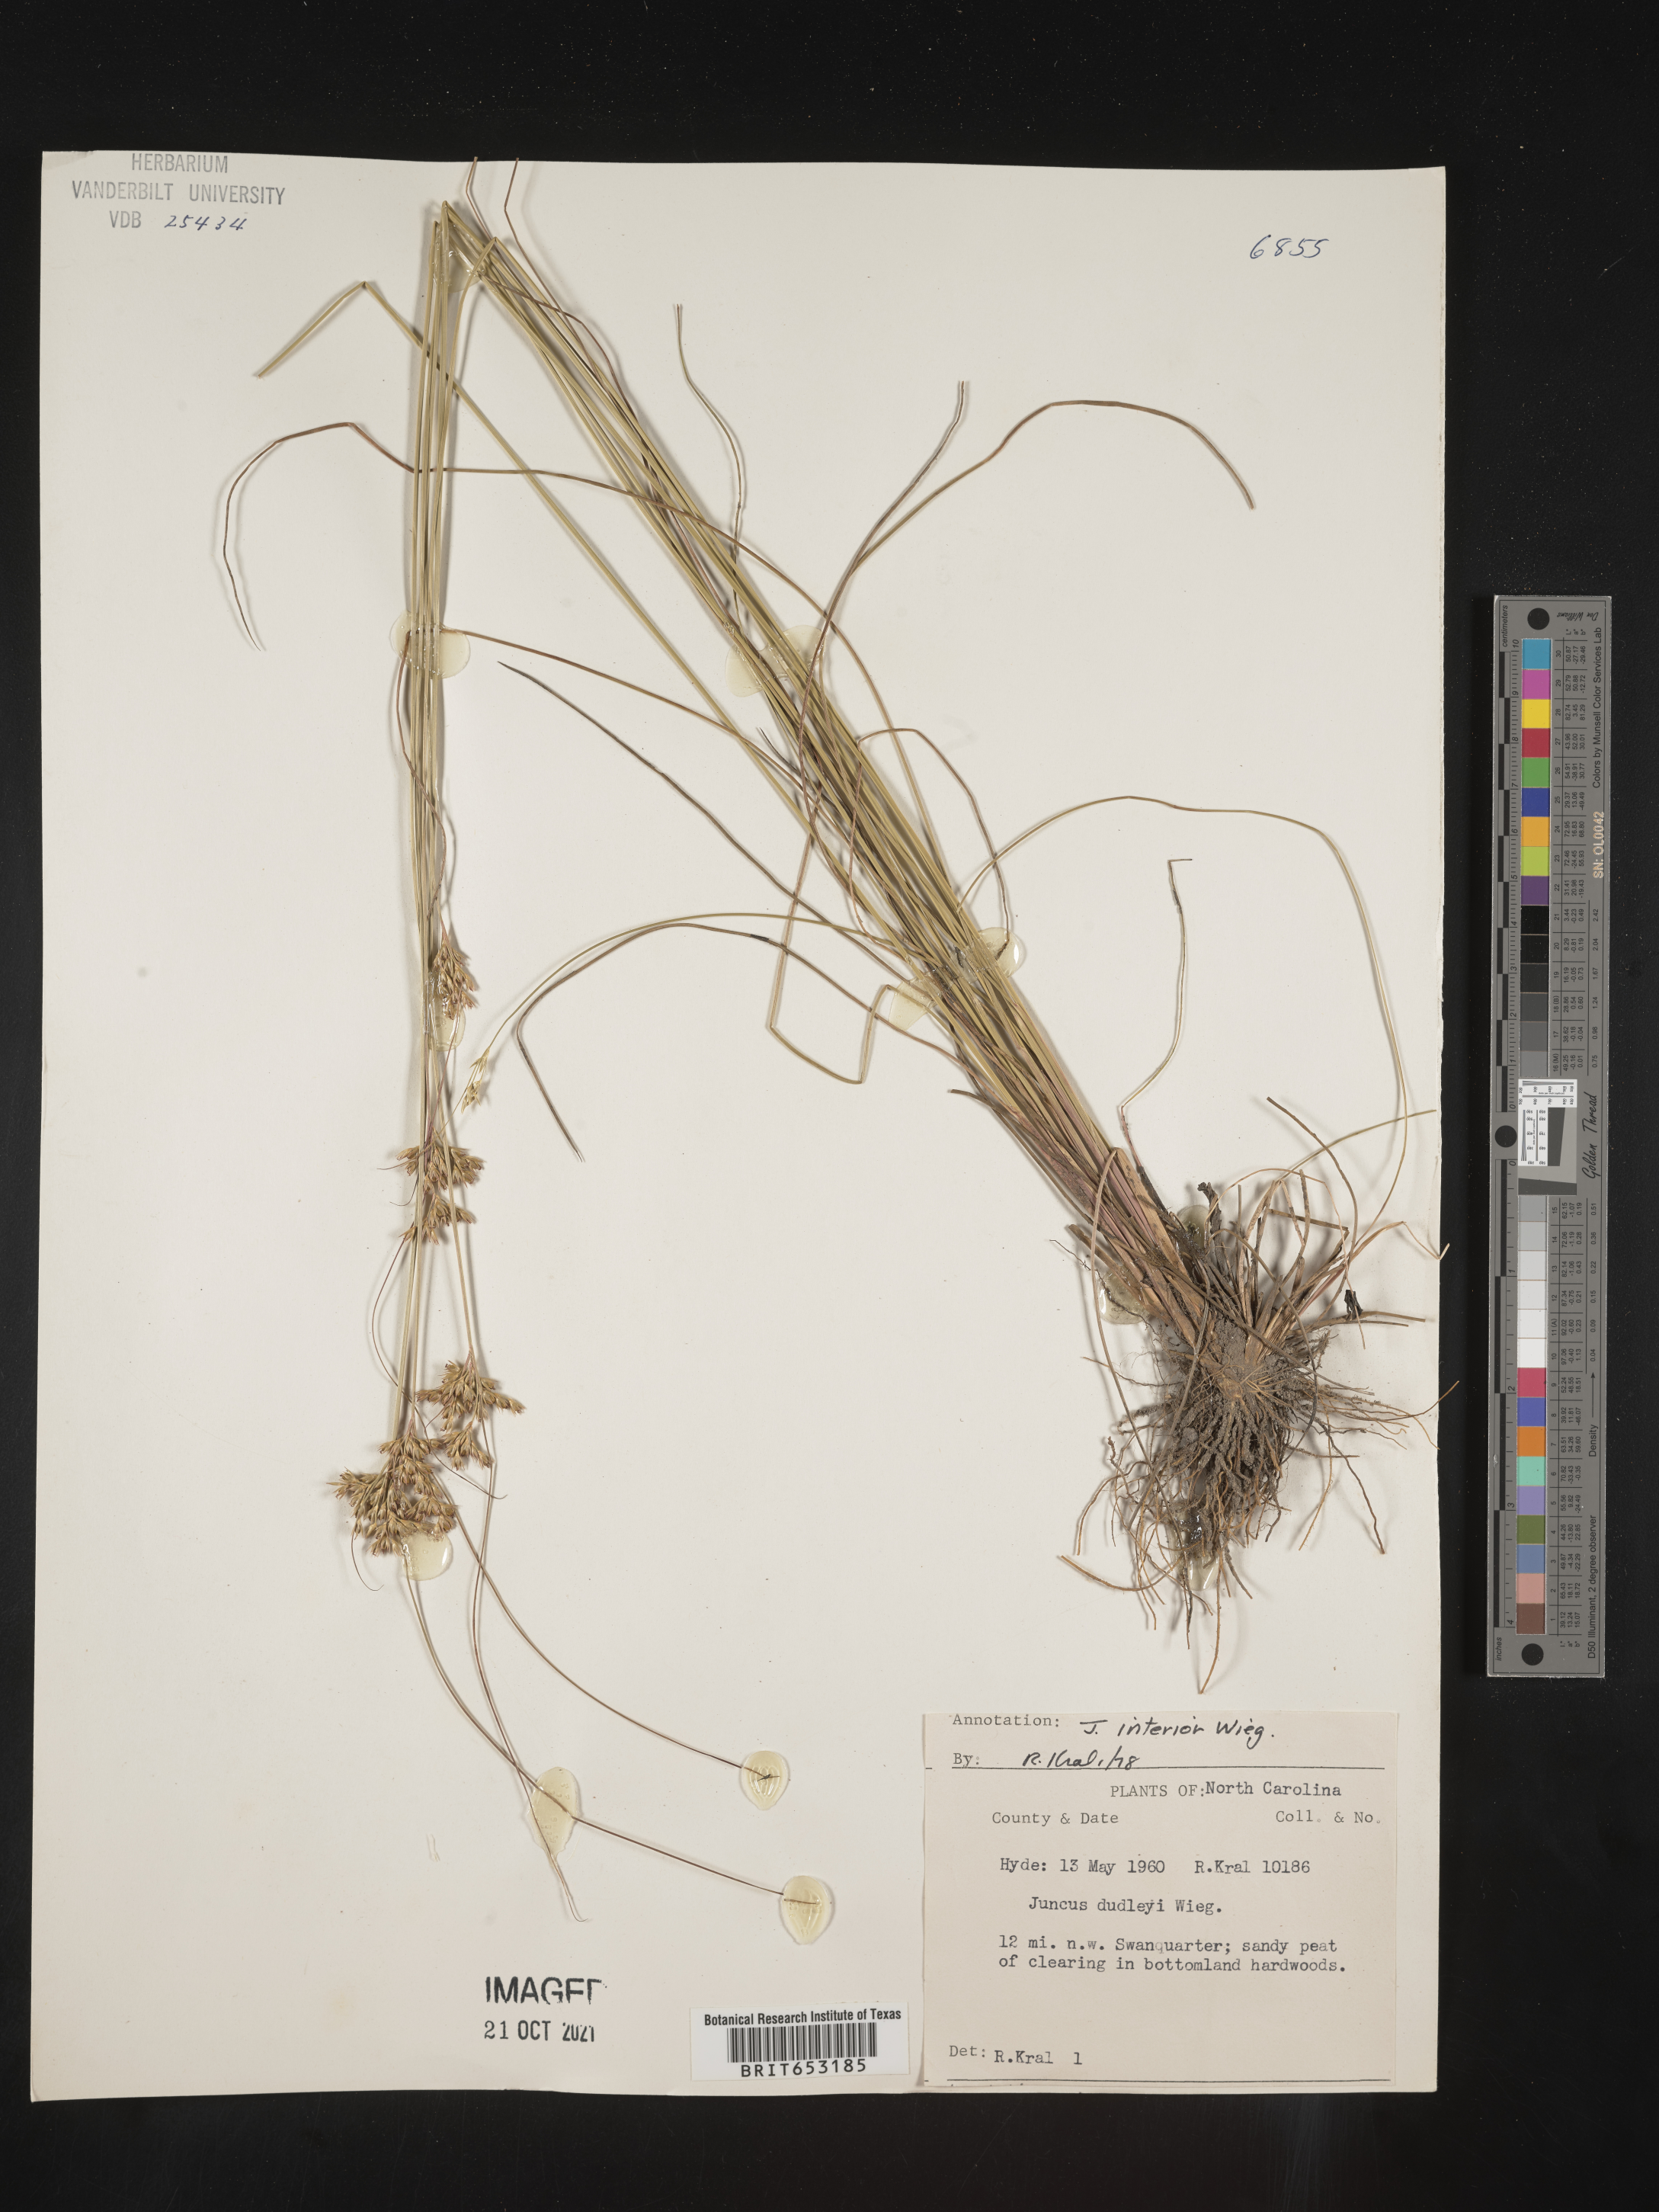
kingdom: Plantae
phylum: Tracheophyta
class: Liliopsida
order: Poales
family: Juncaceae
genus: Juncus
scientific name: Juncus interior
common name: Interior rush
